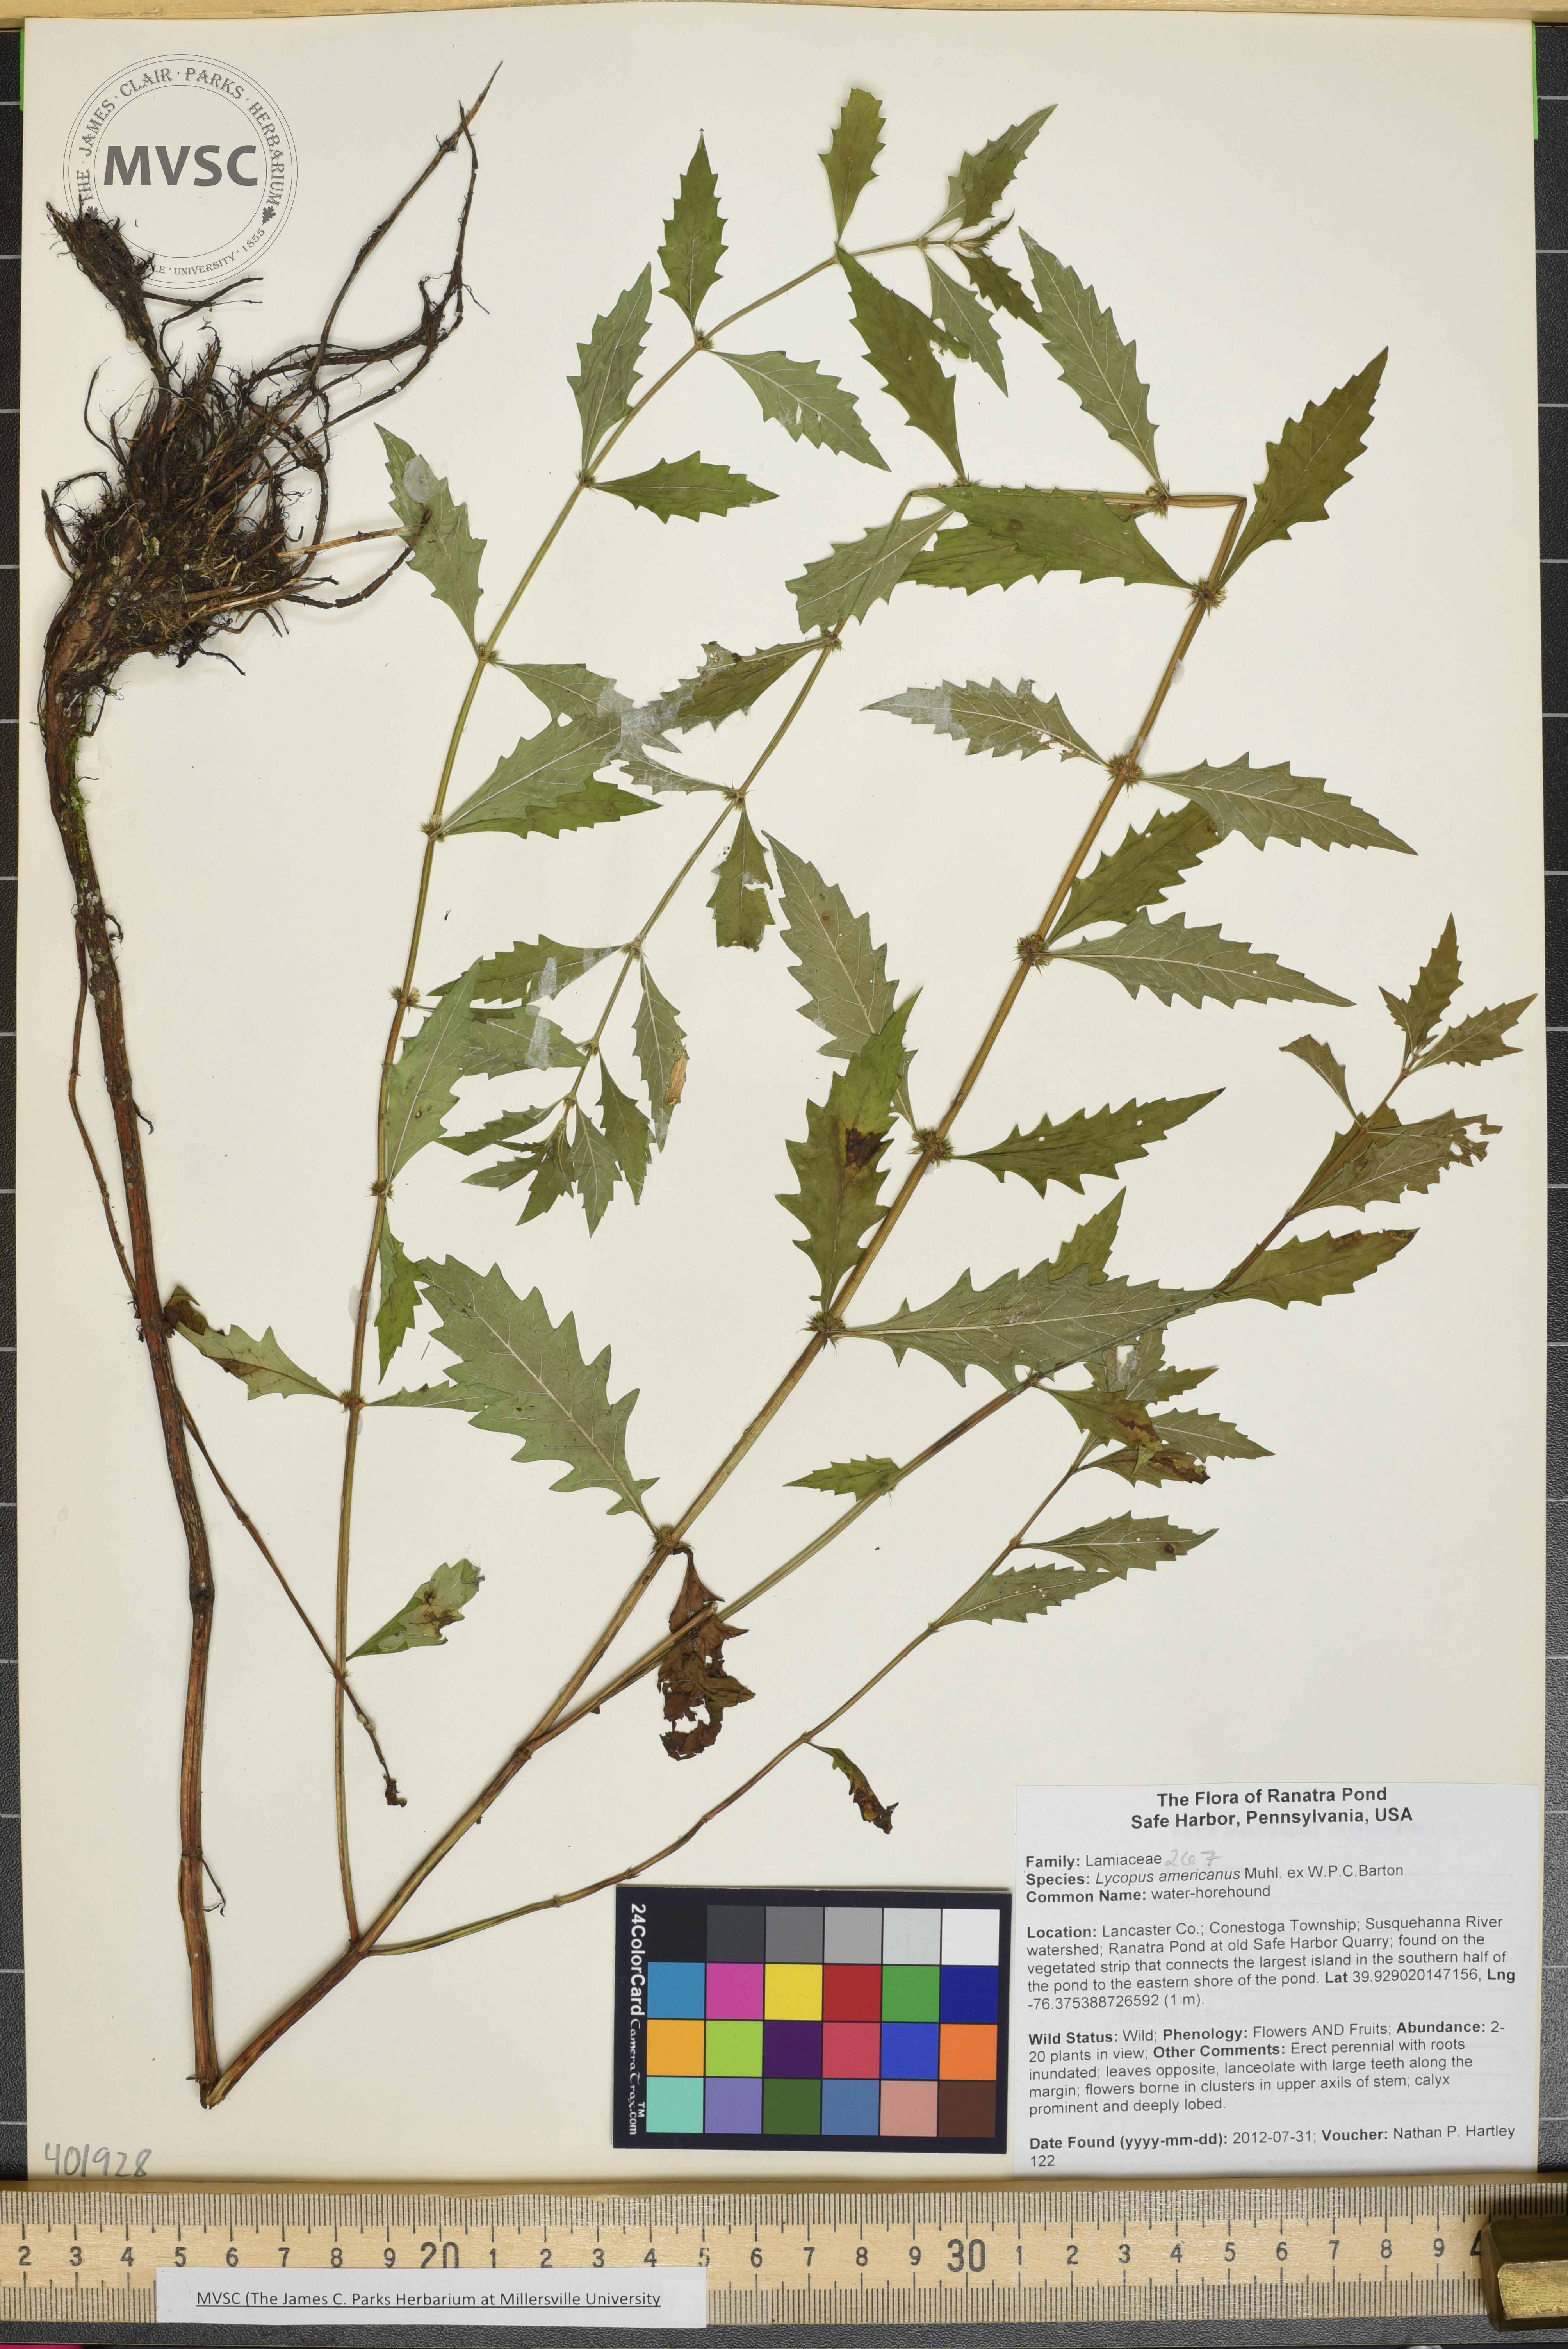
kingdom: Plantae
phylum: Tracheophyta
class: Magnoliopsida
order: Lamiales
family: Lamiaceae
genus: Lycopus
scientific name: Lycopus americanus
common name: Water-horehound
